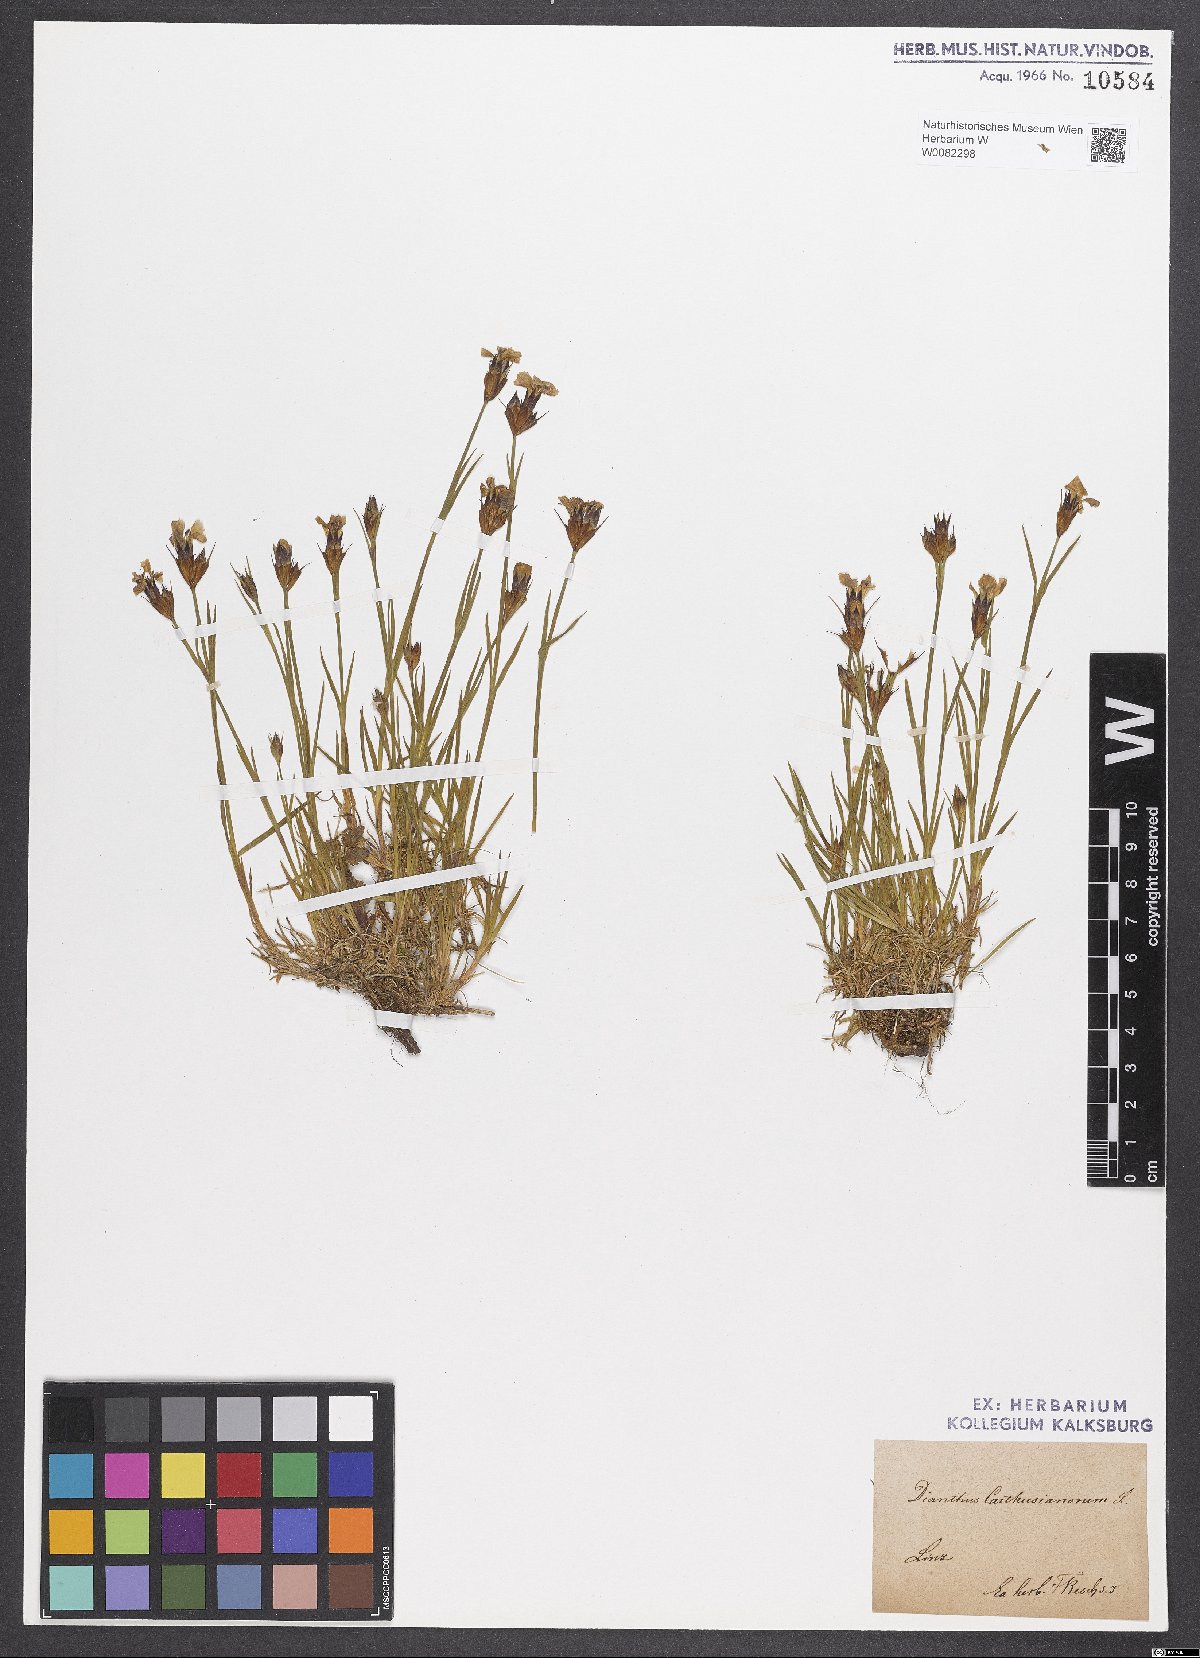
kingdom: Plantae
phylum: Tracheophyta
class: Magnoliopsida
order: Caryophyllales
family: Caryophyllaceae
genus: Dianthus
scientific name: Dianthus carthusianorum
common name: Carthusian pink
